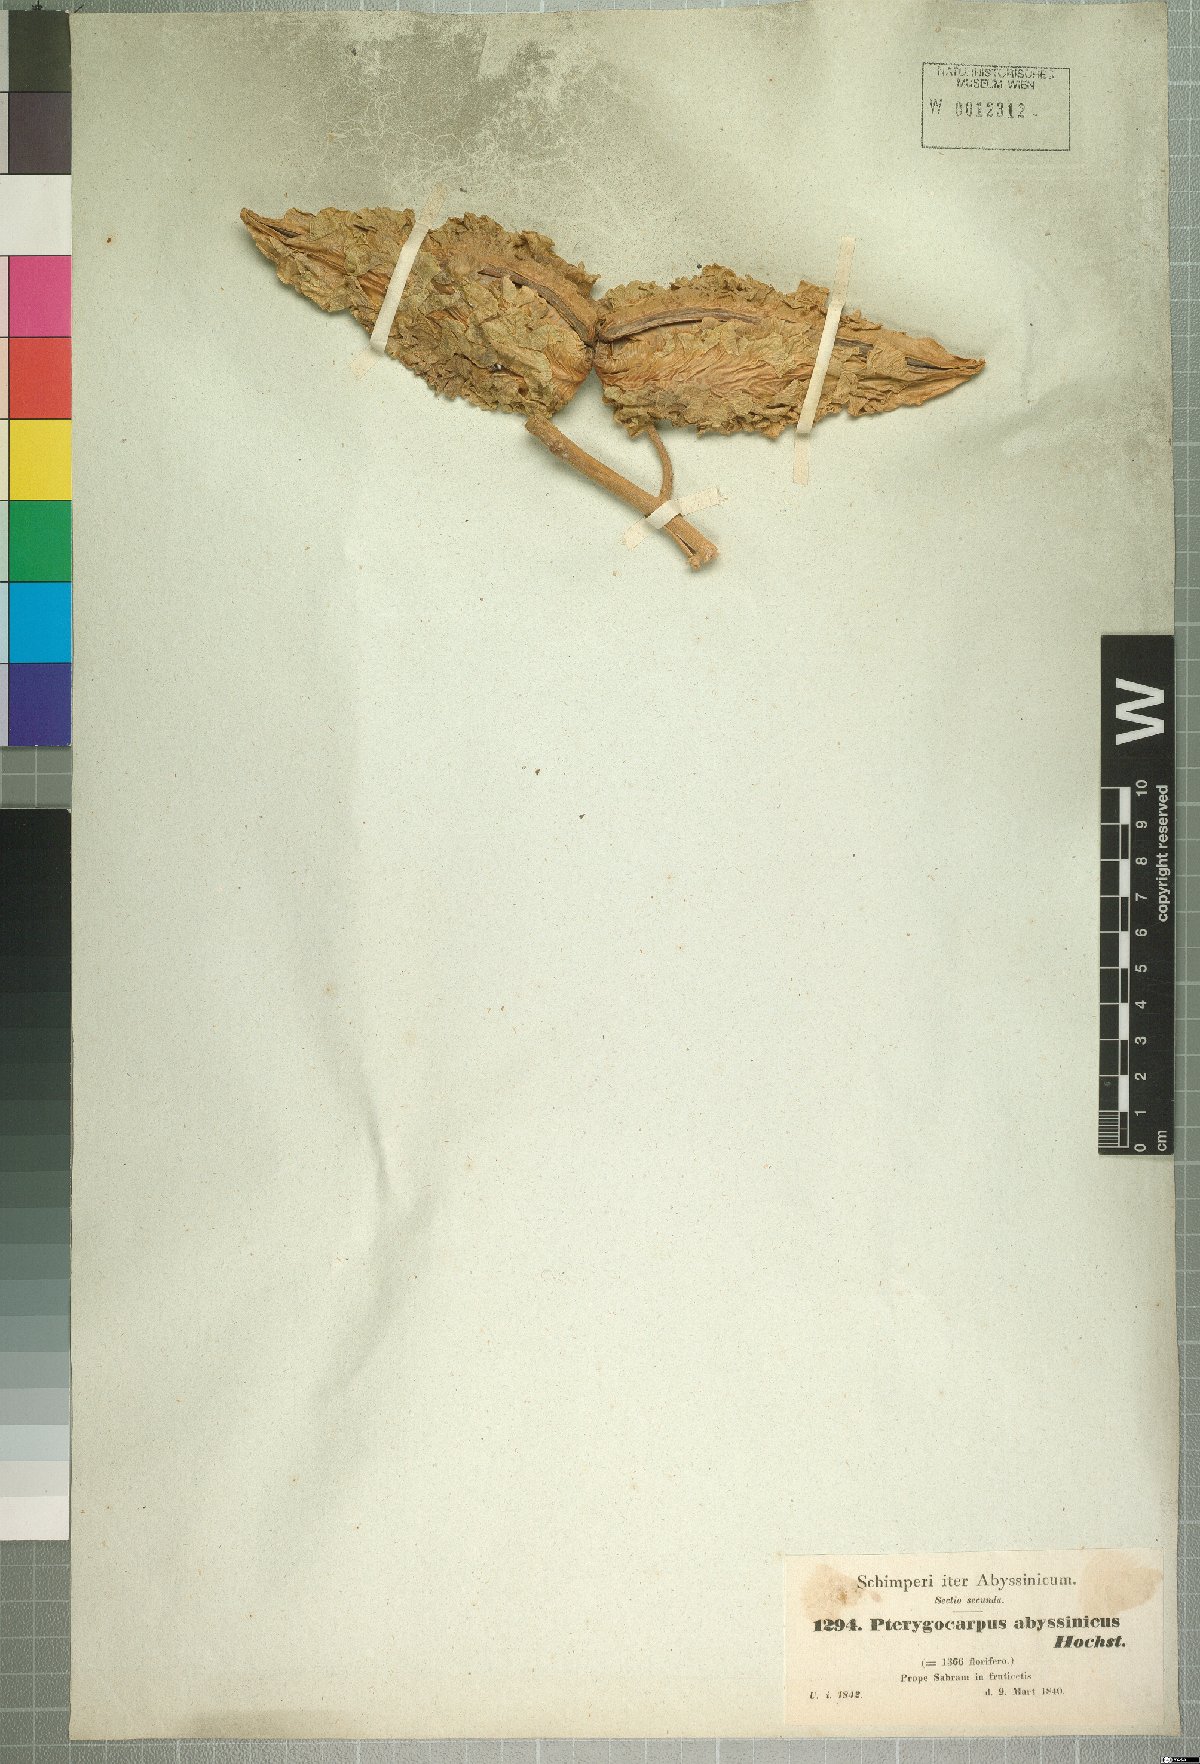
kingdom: Plantae
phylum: Tracheophyta
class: Magnoliopsida
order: Gentianales
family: Apocynaceae
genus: Stephanotis
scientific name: Stephanotis abyssinica
